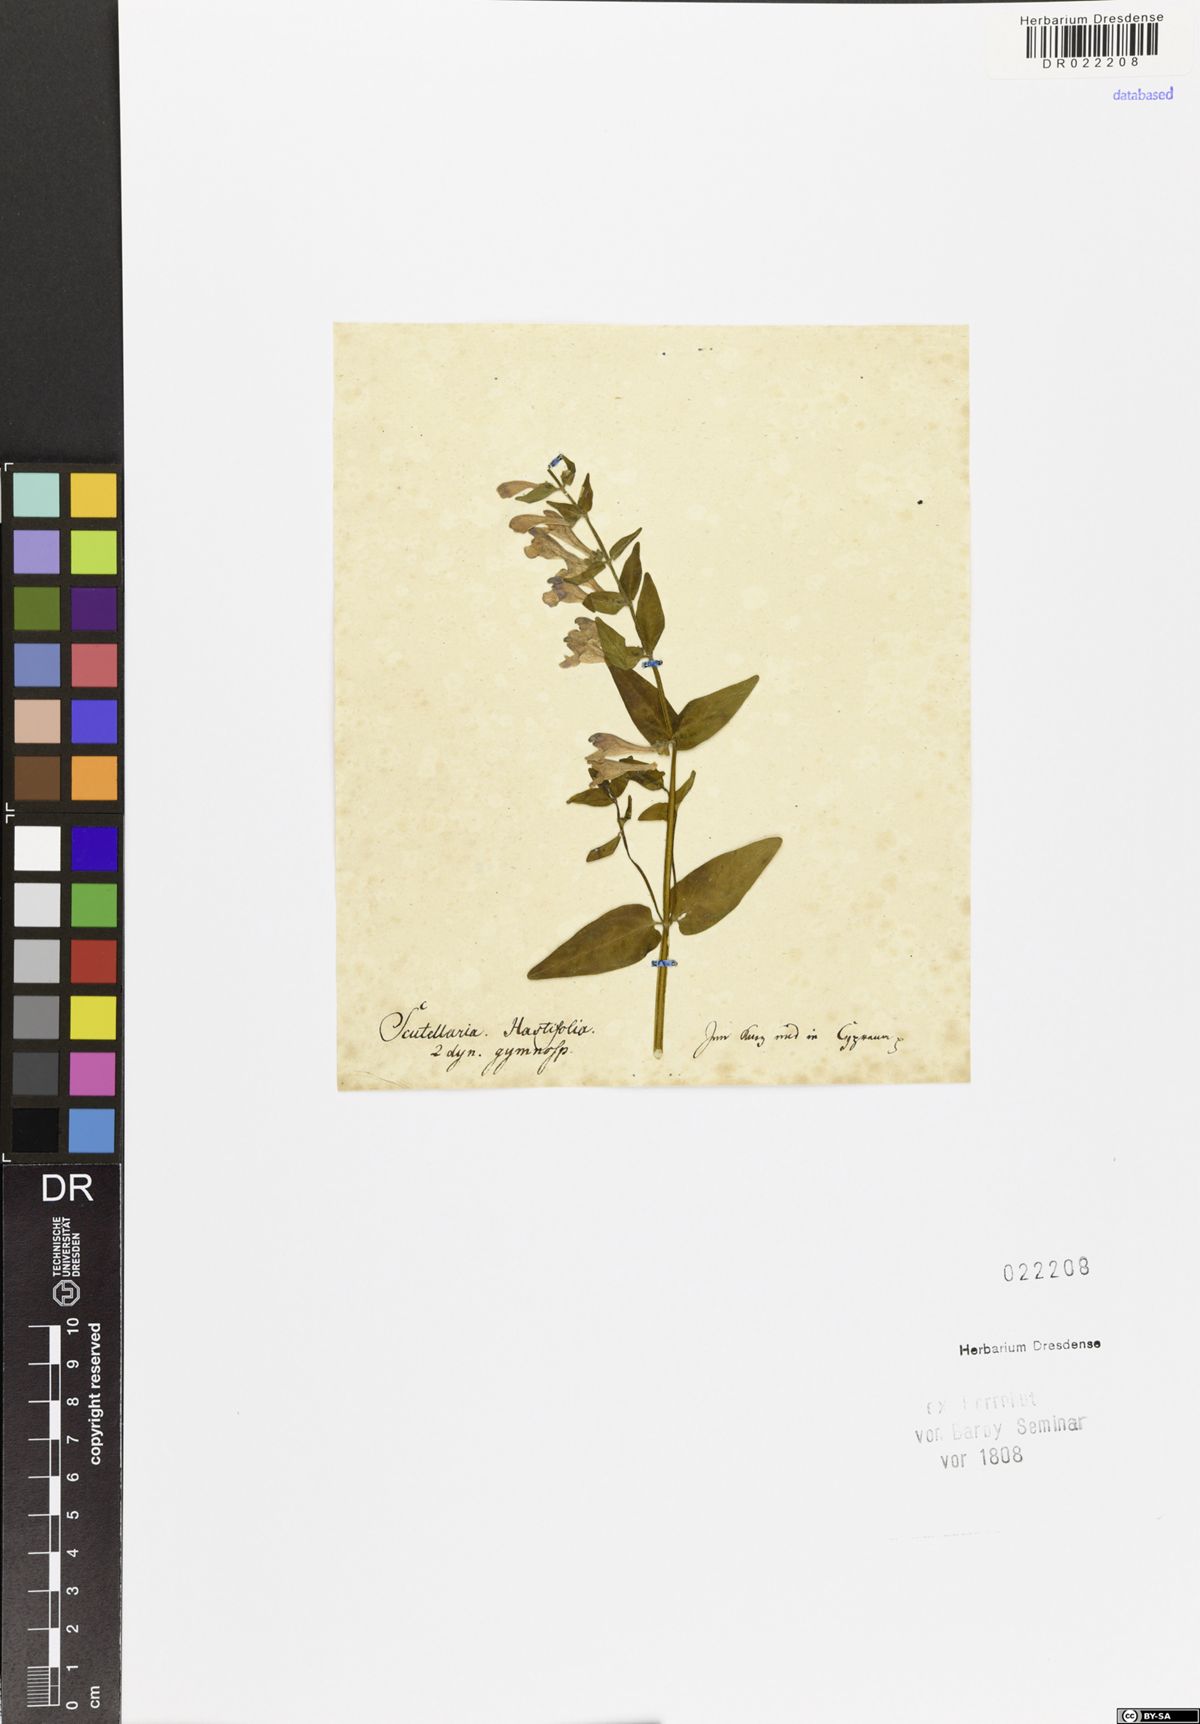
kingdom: Plantae
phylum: Tracheophyta
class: Magnoliopsida
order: Lamiales
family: Lamiaceae
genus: Scutellaria
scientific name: Scutellaria hastifolia
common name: Norfolk skullcap
